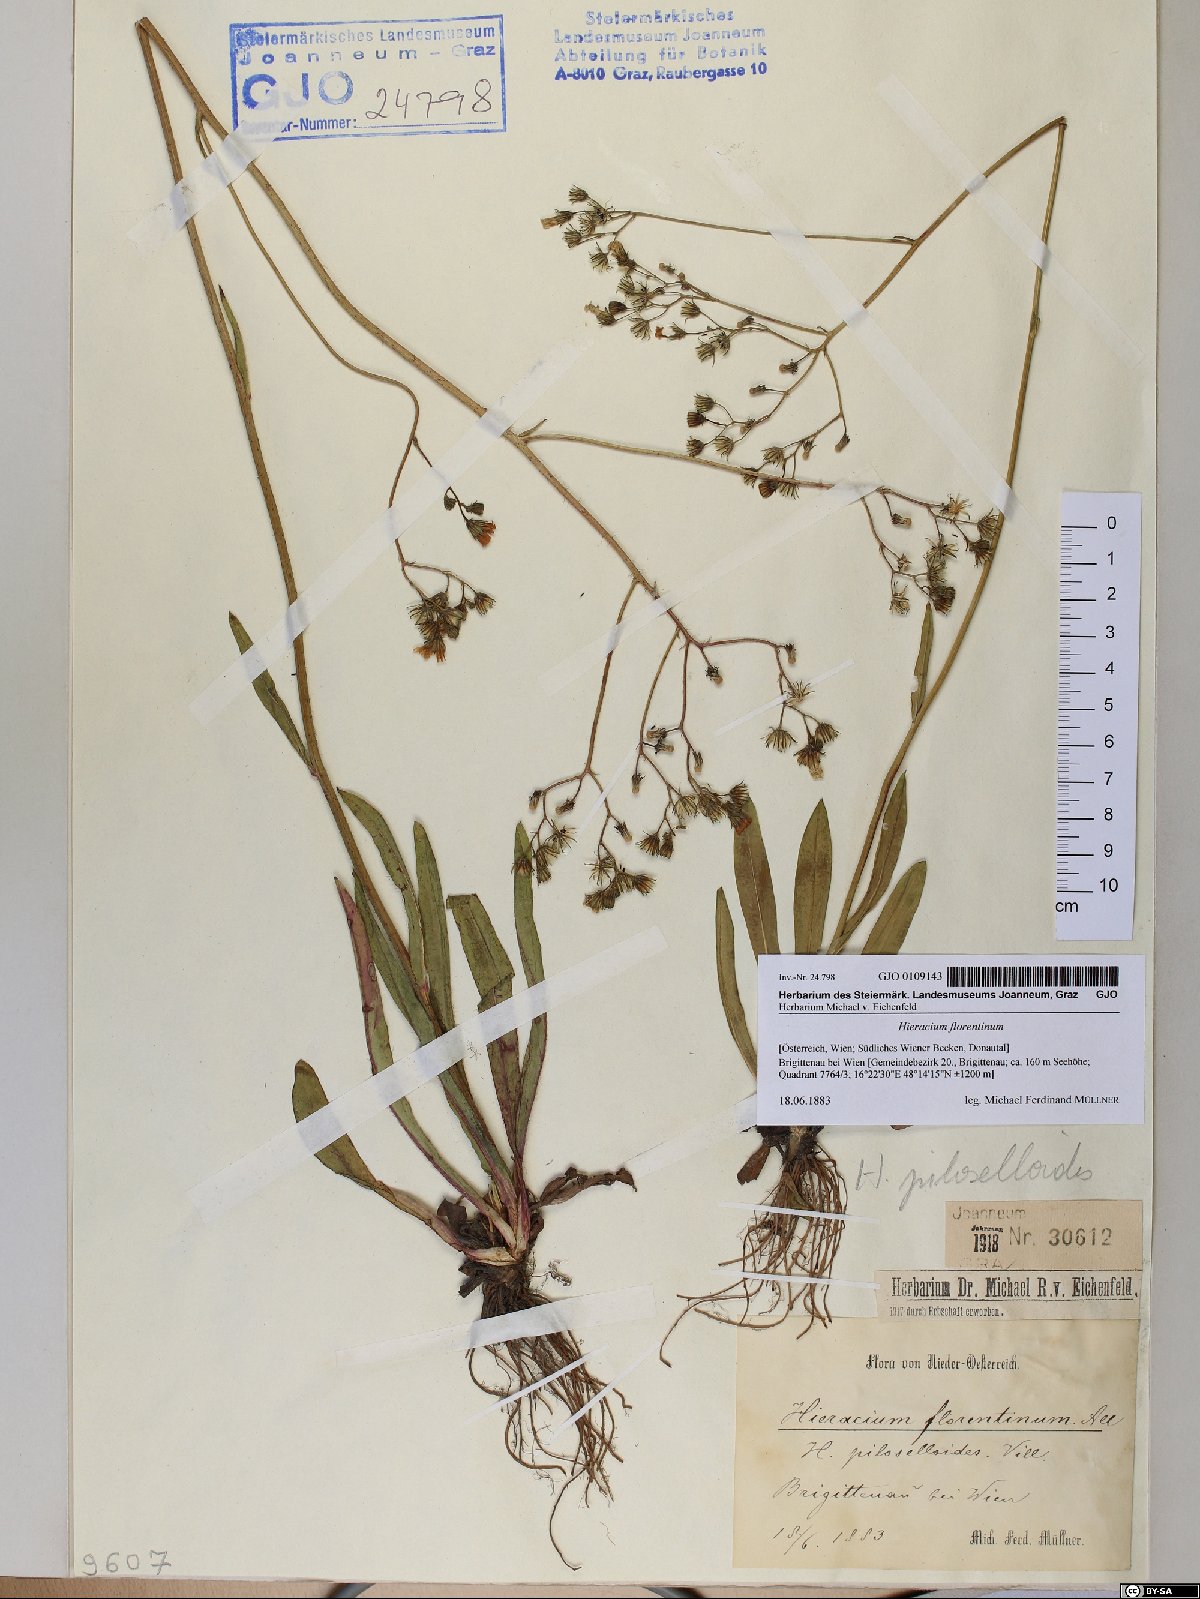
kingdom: Plantae
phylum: Tracheophyta
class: Magnoliopsida
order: Asterales
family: Asteraceae
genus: Pilosella
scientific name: Pilosella piloselloides
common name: Glaucous king-devil
